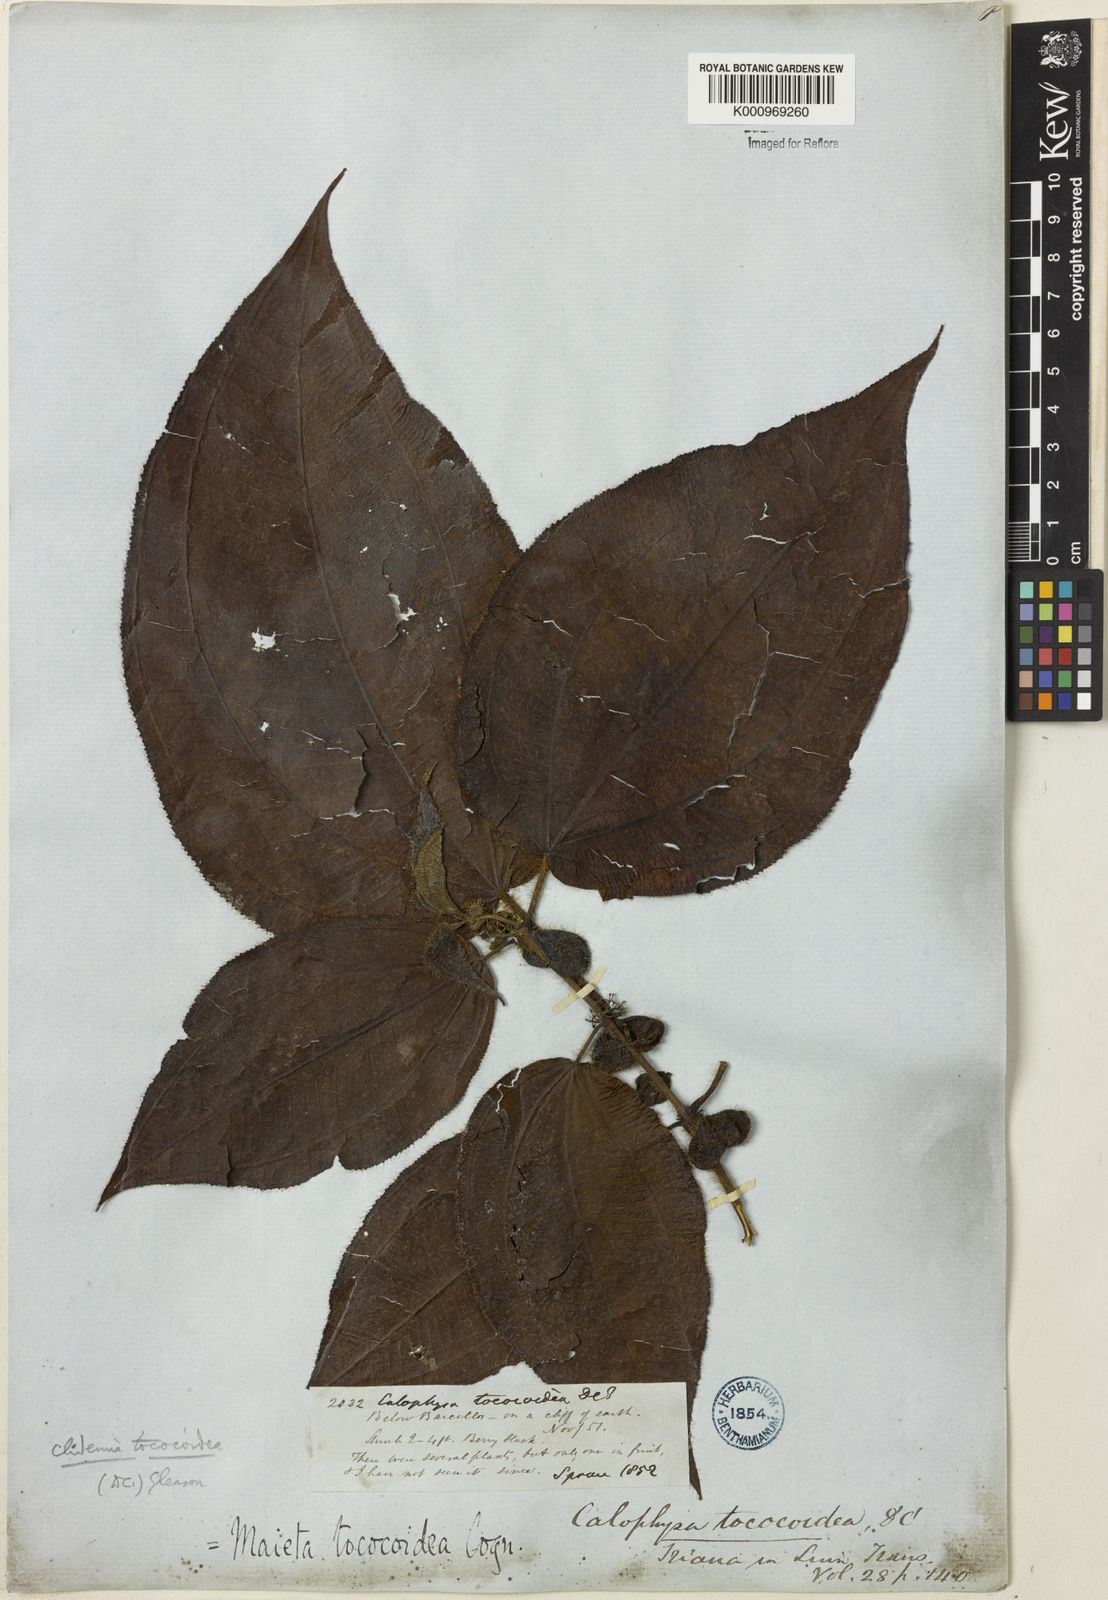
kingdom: Plantae
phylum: Tracheophyta
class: Magnoliopsida
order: Myrtales
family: Melastomataceae
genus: Miconia
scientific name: Miconia tococoidea
